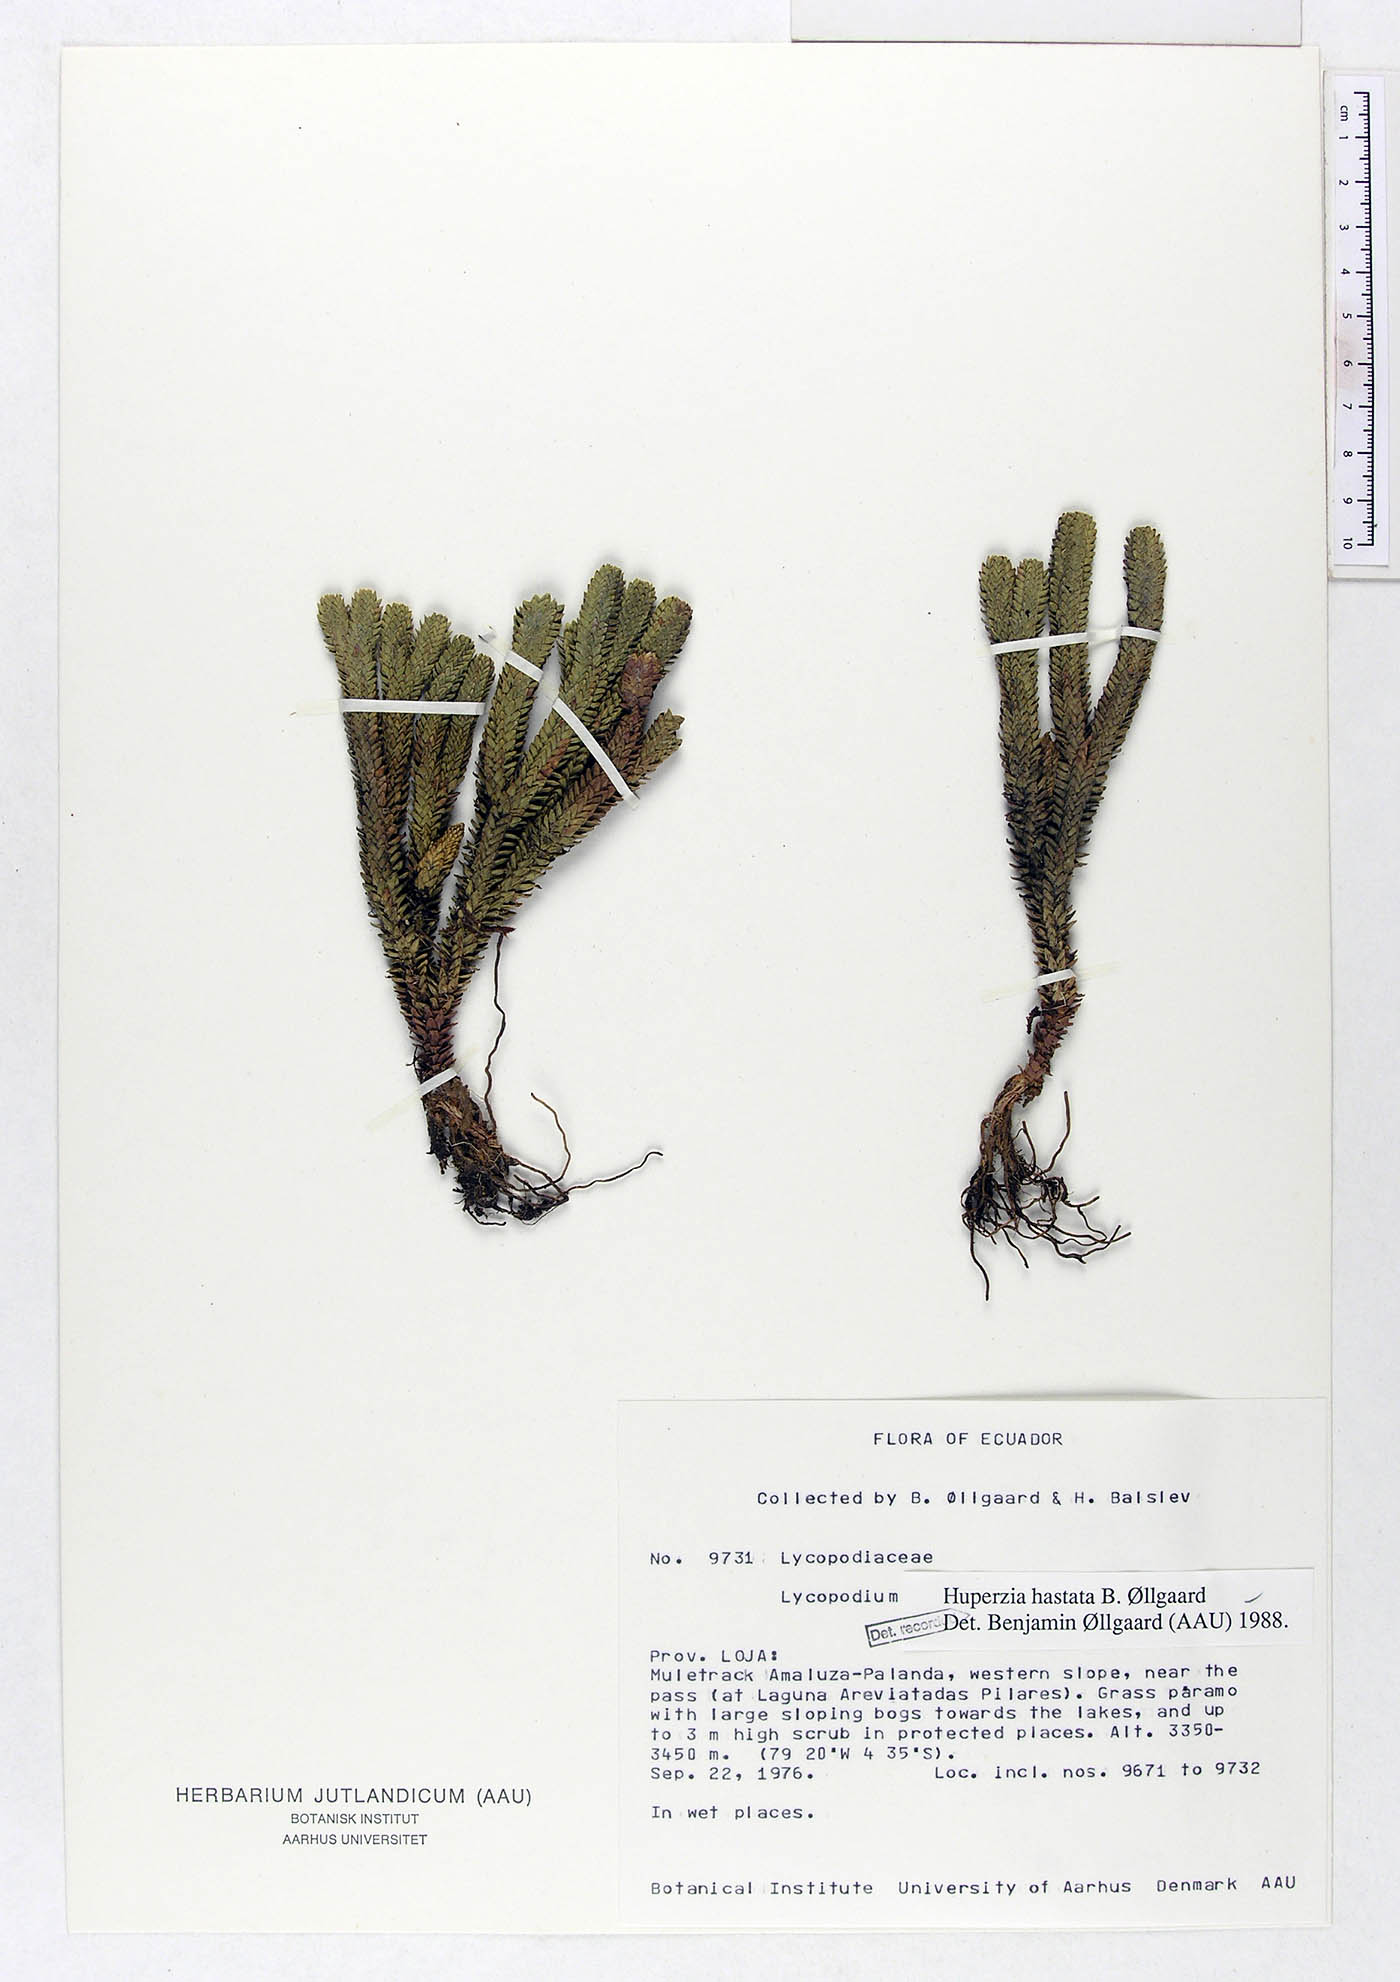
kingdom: Plantae
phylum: Tracheophyta
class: Lycopodiopsida
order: Lycopodiales
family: Lycopodiaceae
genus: Phlegmariurus
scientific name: Phlegmariurus hastatus
